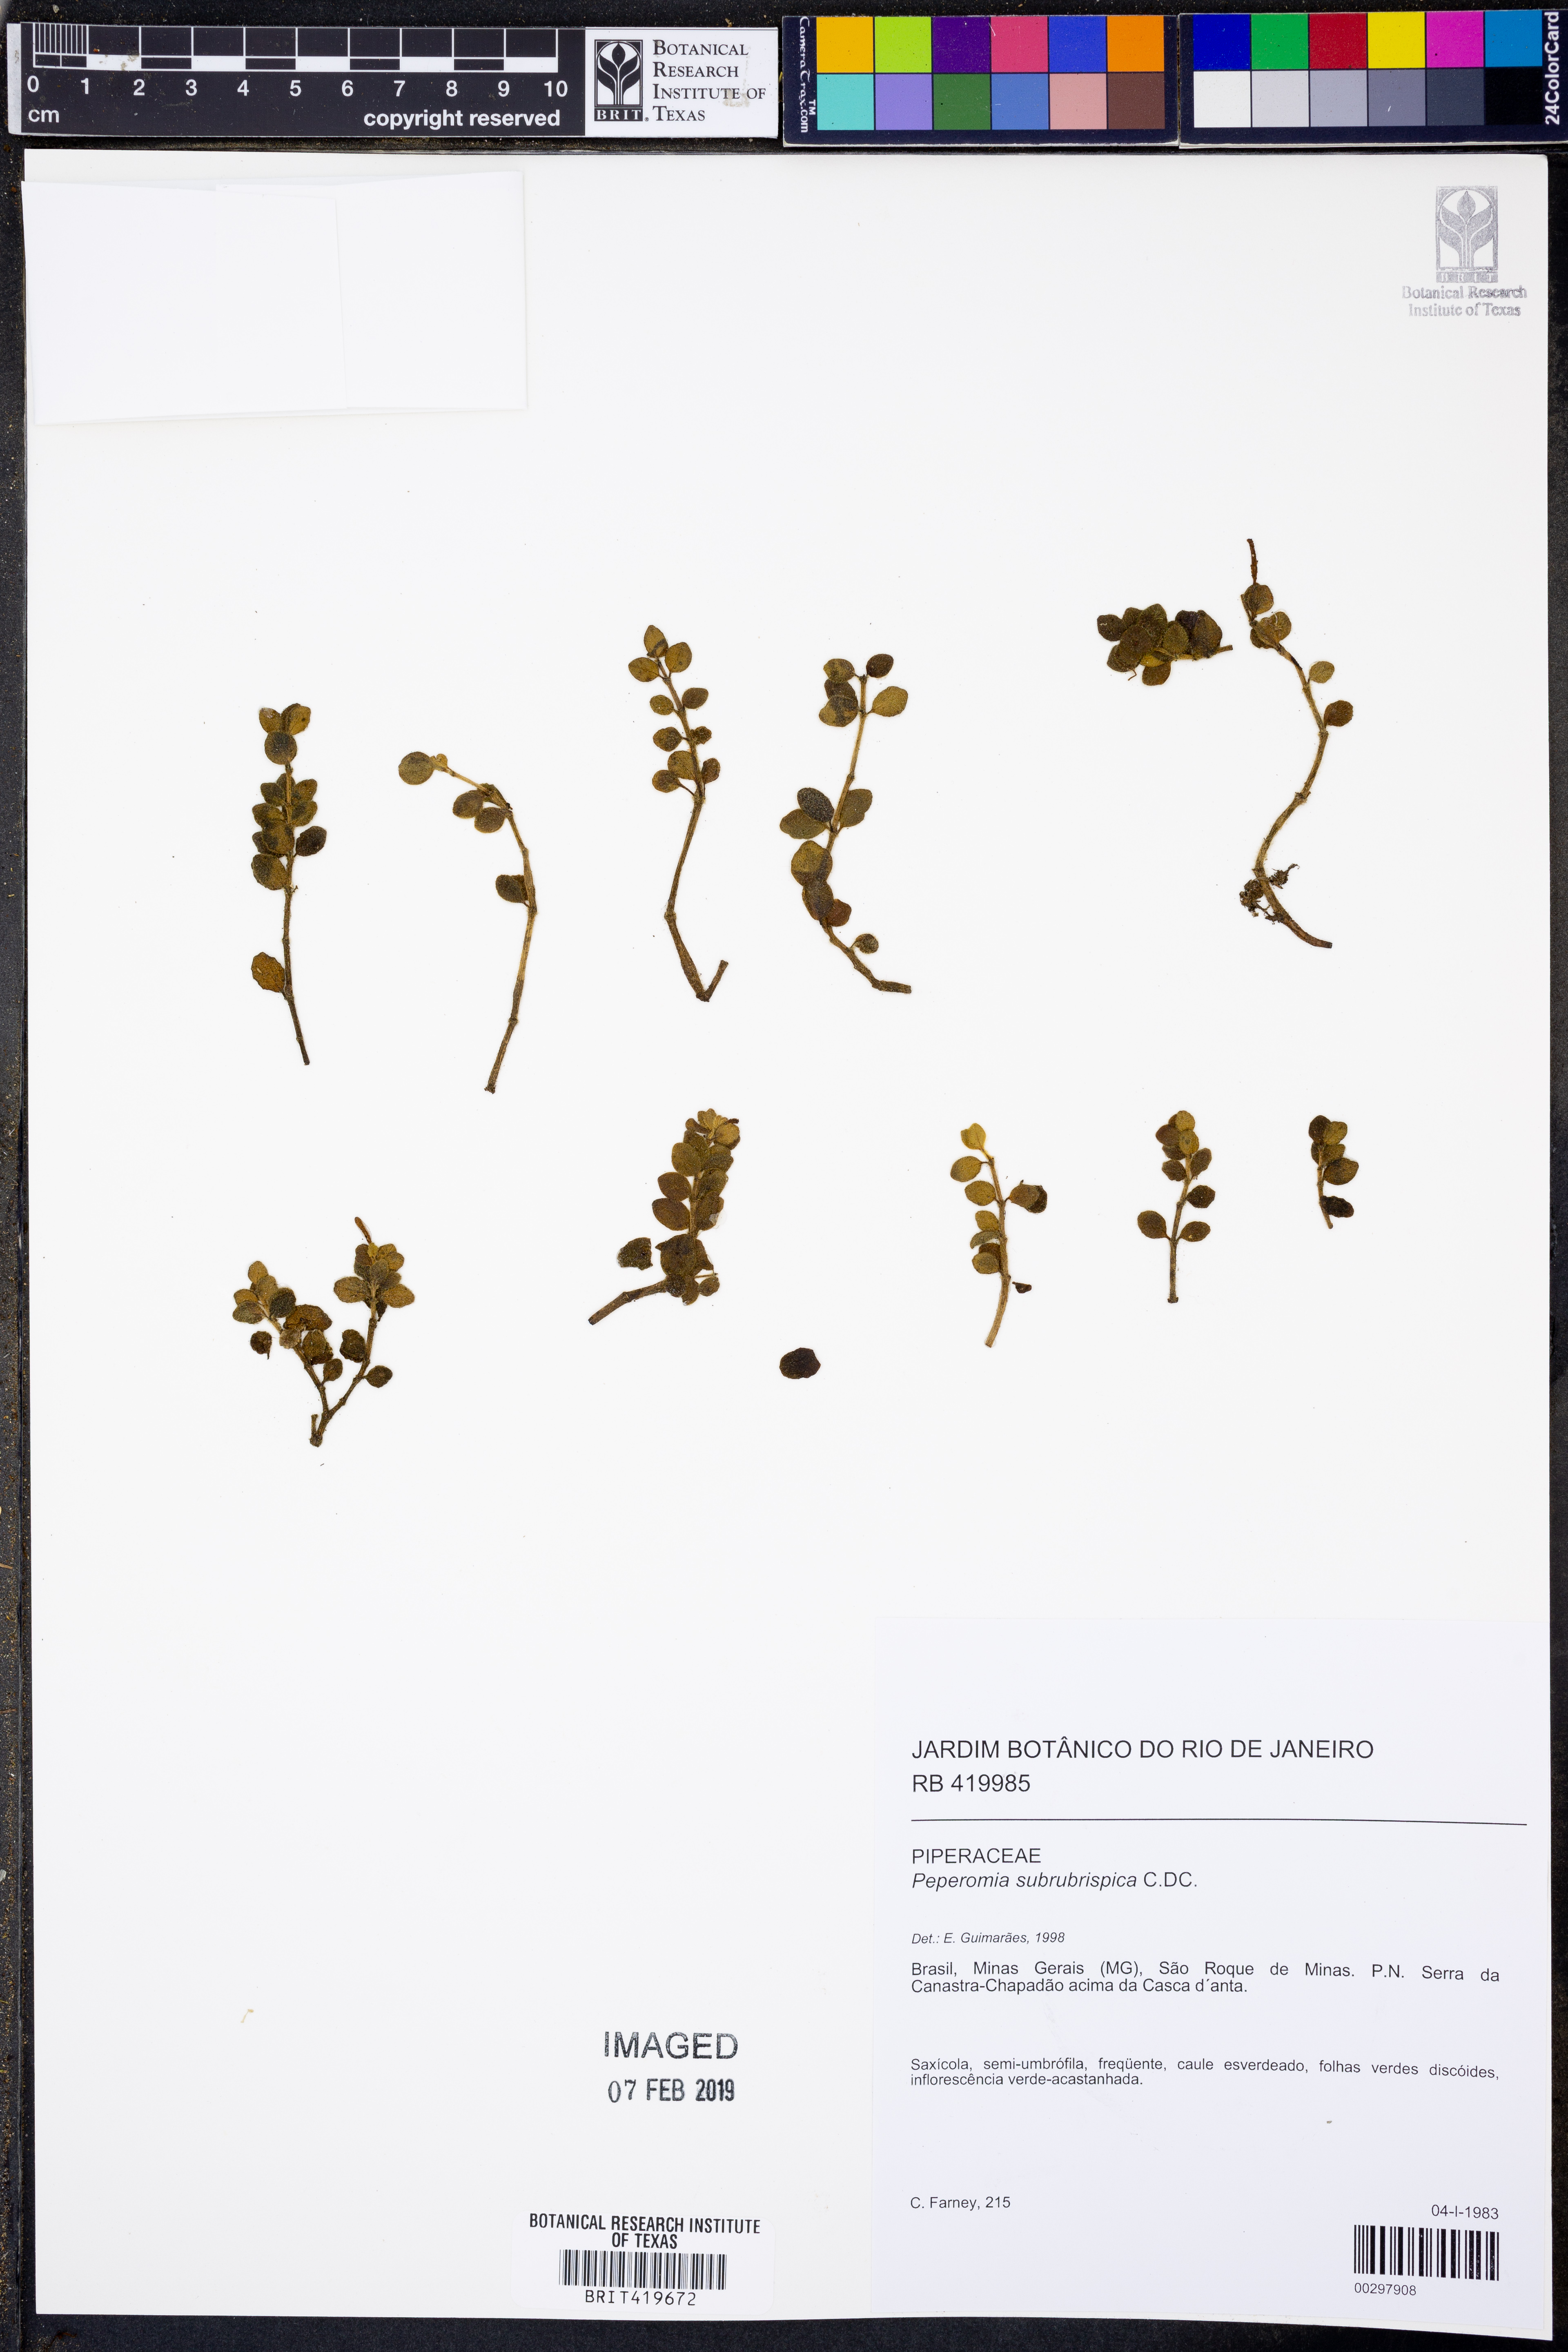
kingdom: Plantae
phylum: Tracheophyta
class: Magnoliopsida
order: Piperales
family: Piperaceae
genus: Peperomia
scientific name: Peperomia subrubrispica
